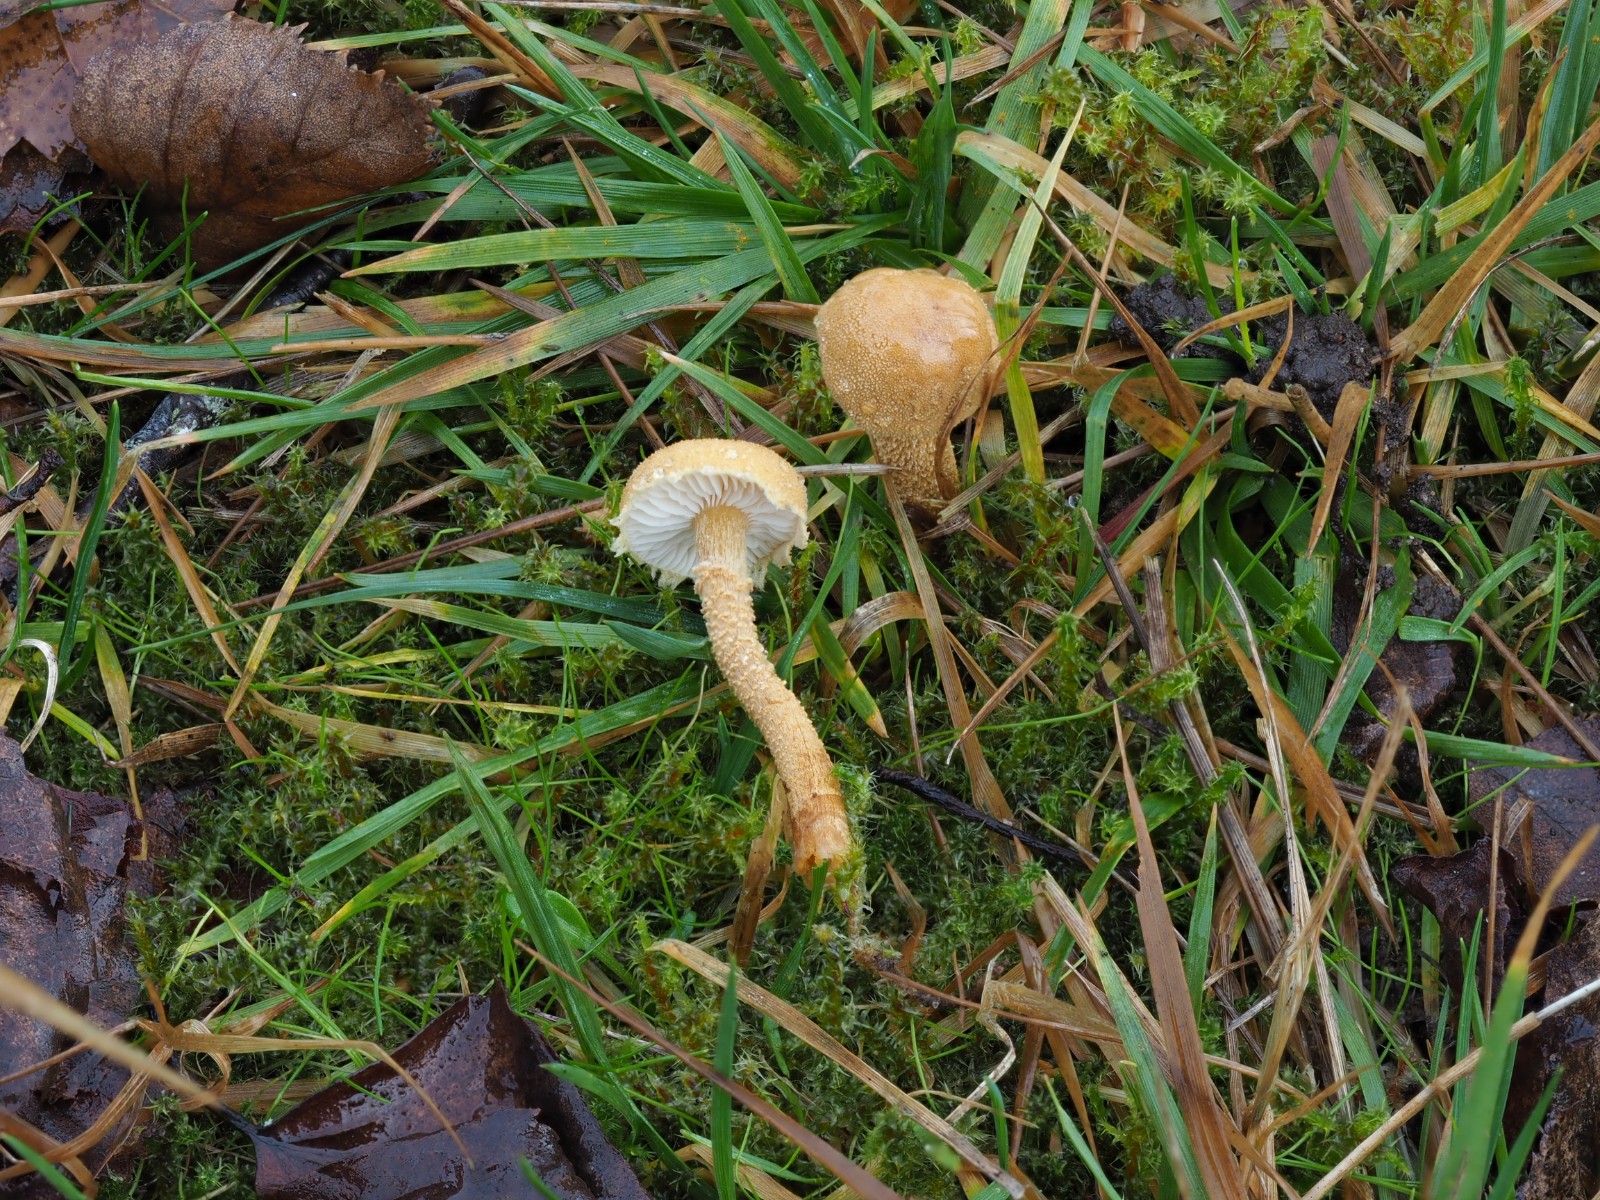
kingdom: Fungi
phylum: Basidiomycota
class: Agaricomycetes
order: Agaricales
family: Tricholomataceae
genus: Cystoderma
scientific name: Cystoderma amianthinum
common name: okkergul grynhat
